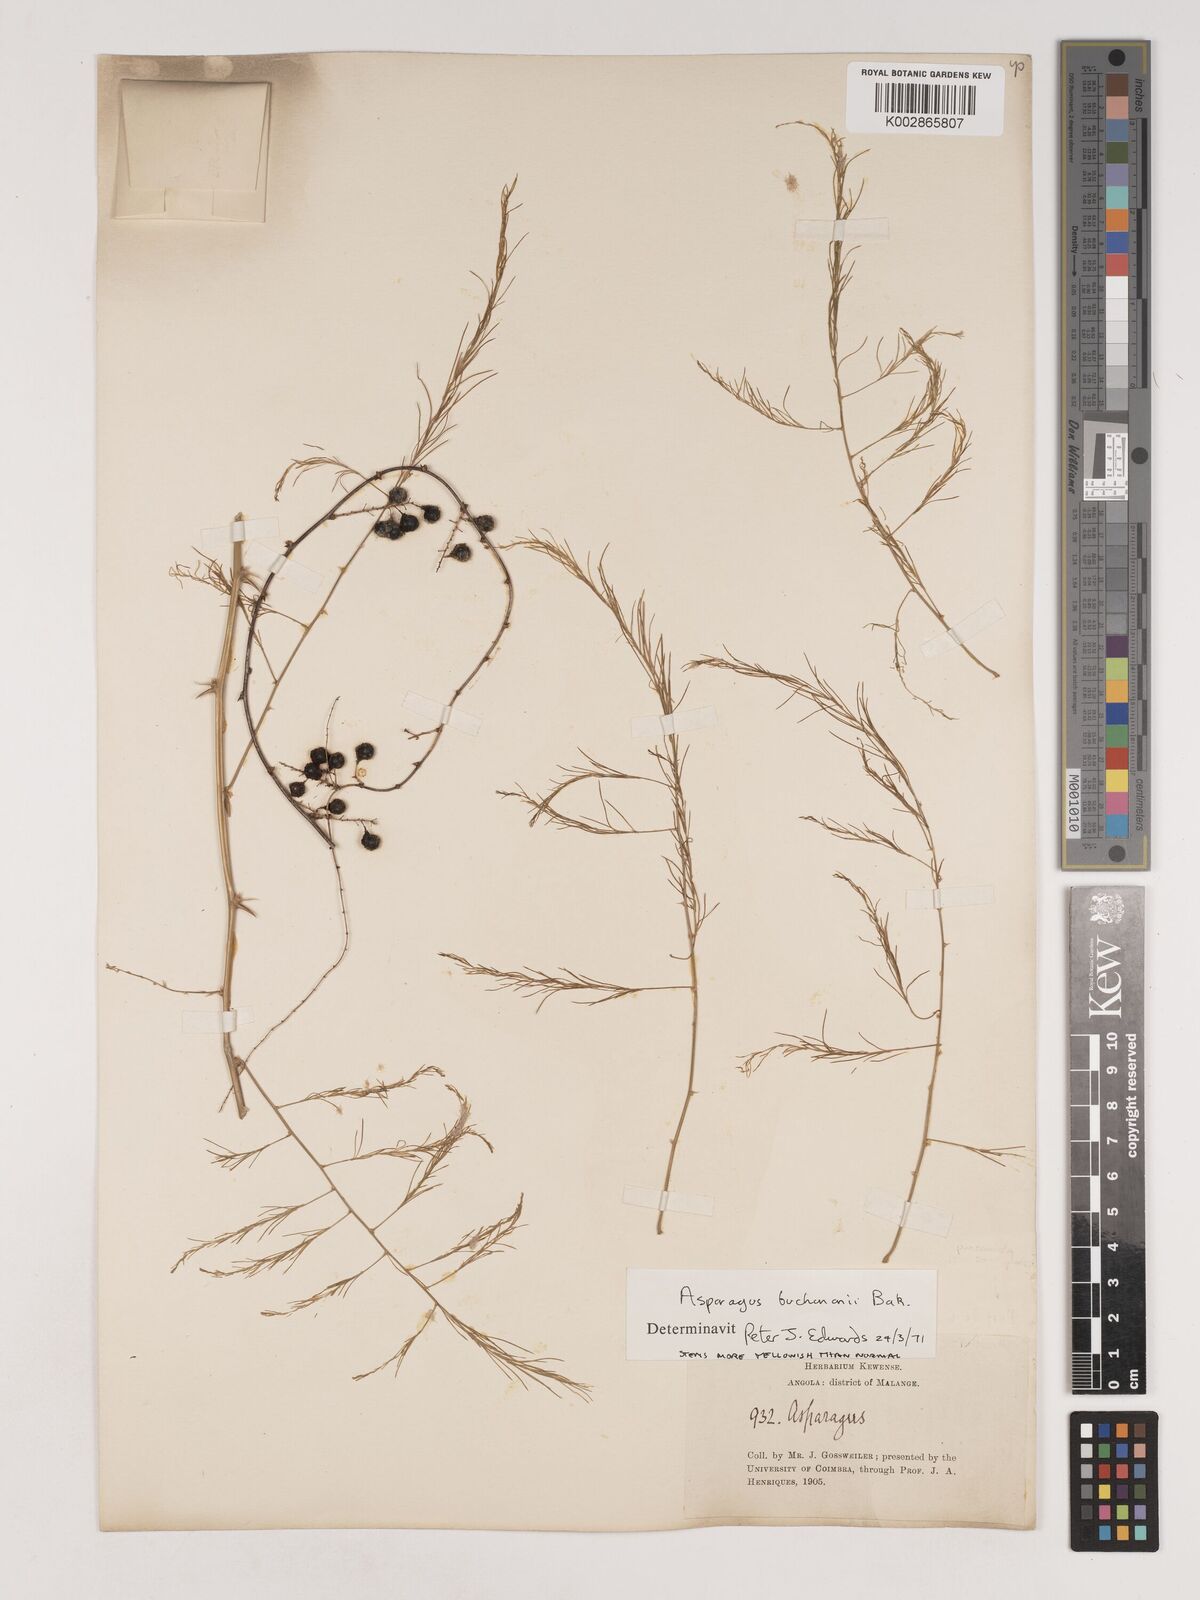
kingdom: Plantae
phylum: Tracheophyta
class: Liliopsida
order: Asparagales
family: Asparagaceae
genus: Asparagus
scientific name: Asparagus buchananii
